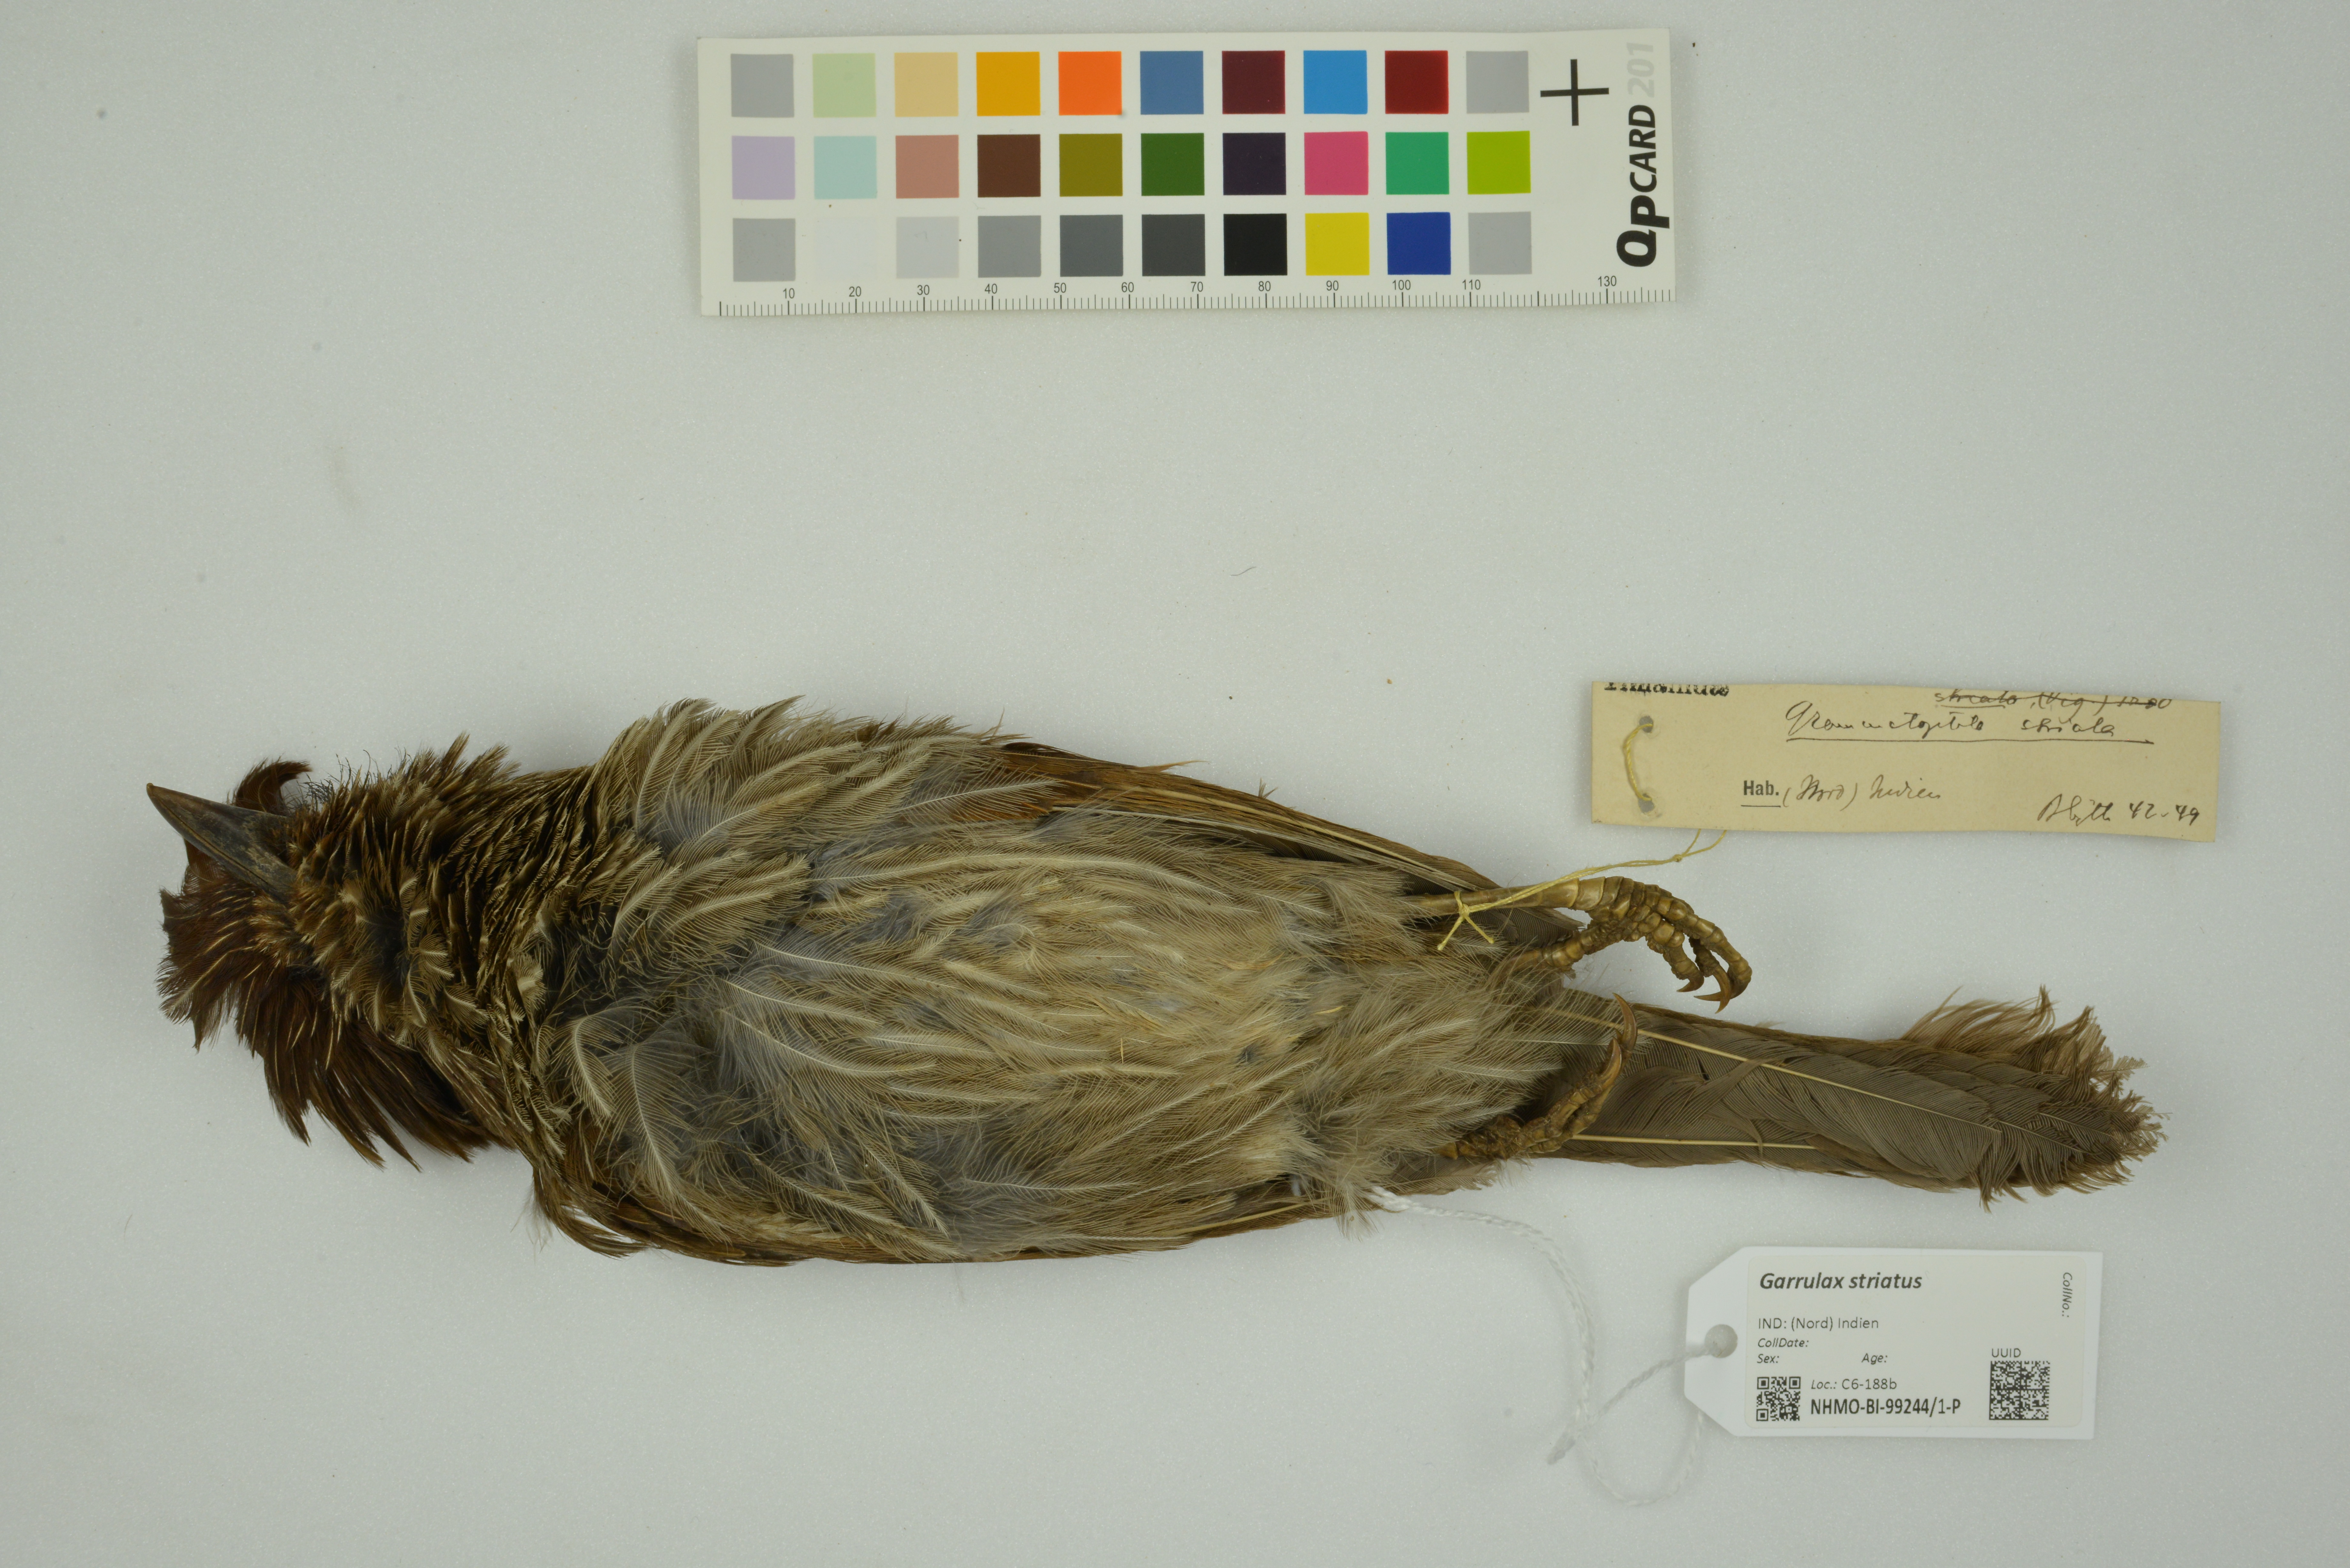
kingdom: Animalia
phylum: Chordata
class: Aves
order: Passeriformes
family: Leiothrichidae
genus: Garrulax
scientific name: Garrulax striatus
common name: Striated laughingthrush
